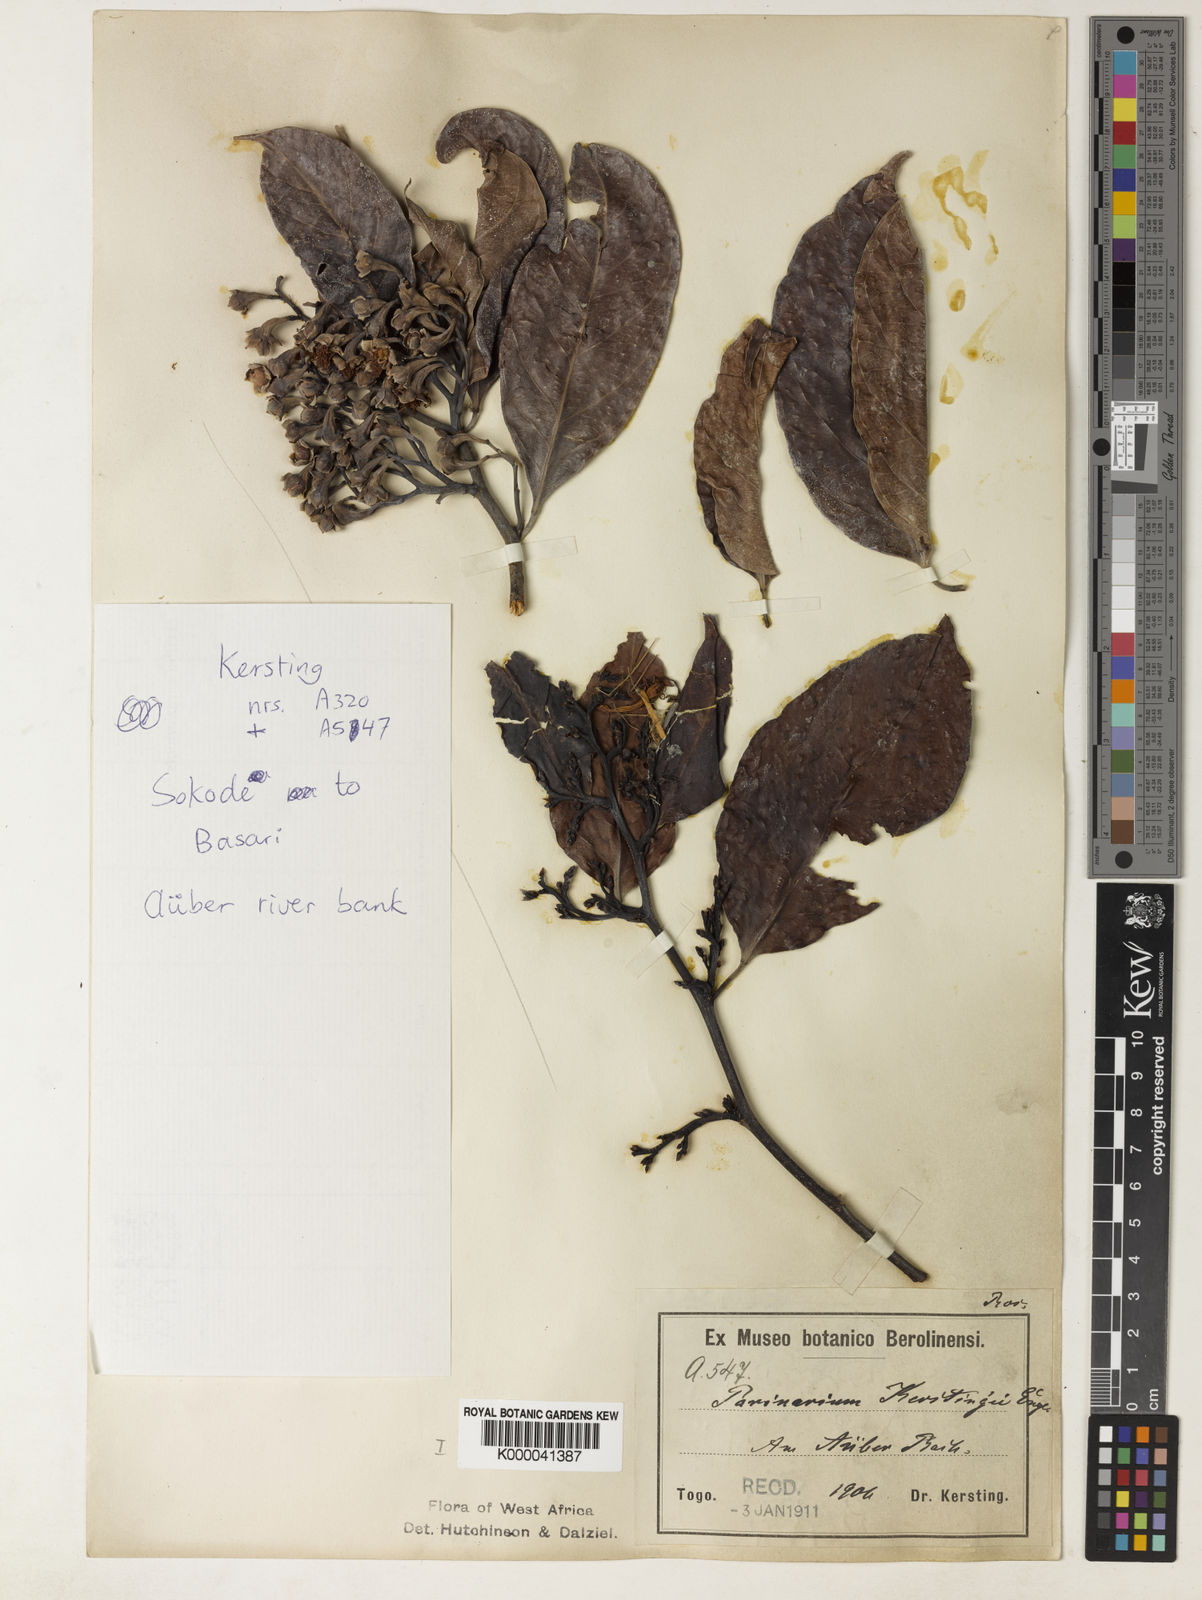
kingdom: Plantae
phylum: Tracheophyta
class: Magnoliopsida
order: Malpighiales
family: Chrysobalanaceae
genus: Maranthes
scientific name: Maranthes kerstingii
